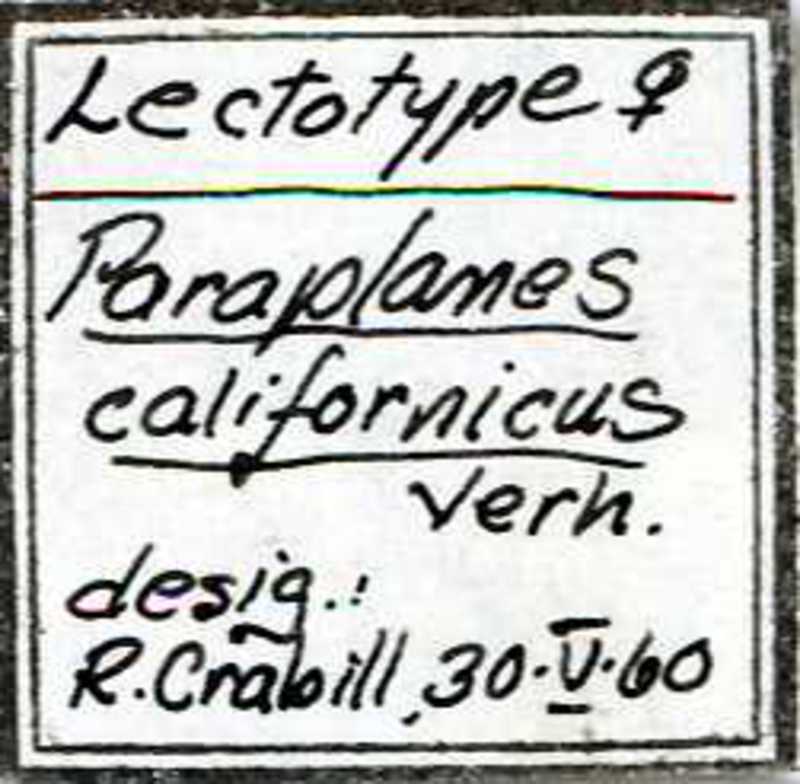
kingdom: Animalia
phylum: Arthropoda
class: Chilopoda
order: Geophilomorpha
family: Linotaeniidae
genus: Diplochora
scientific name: Diplochora fusata
